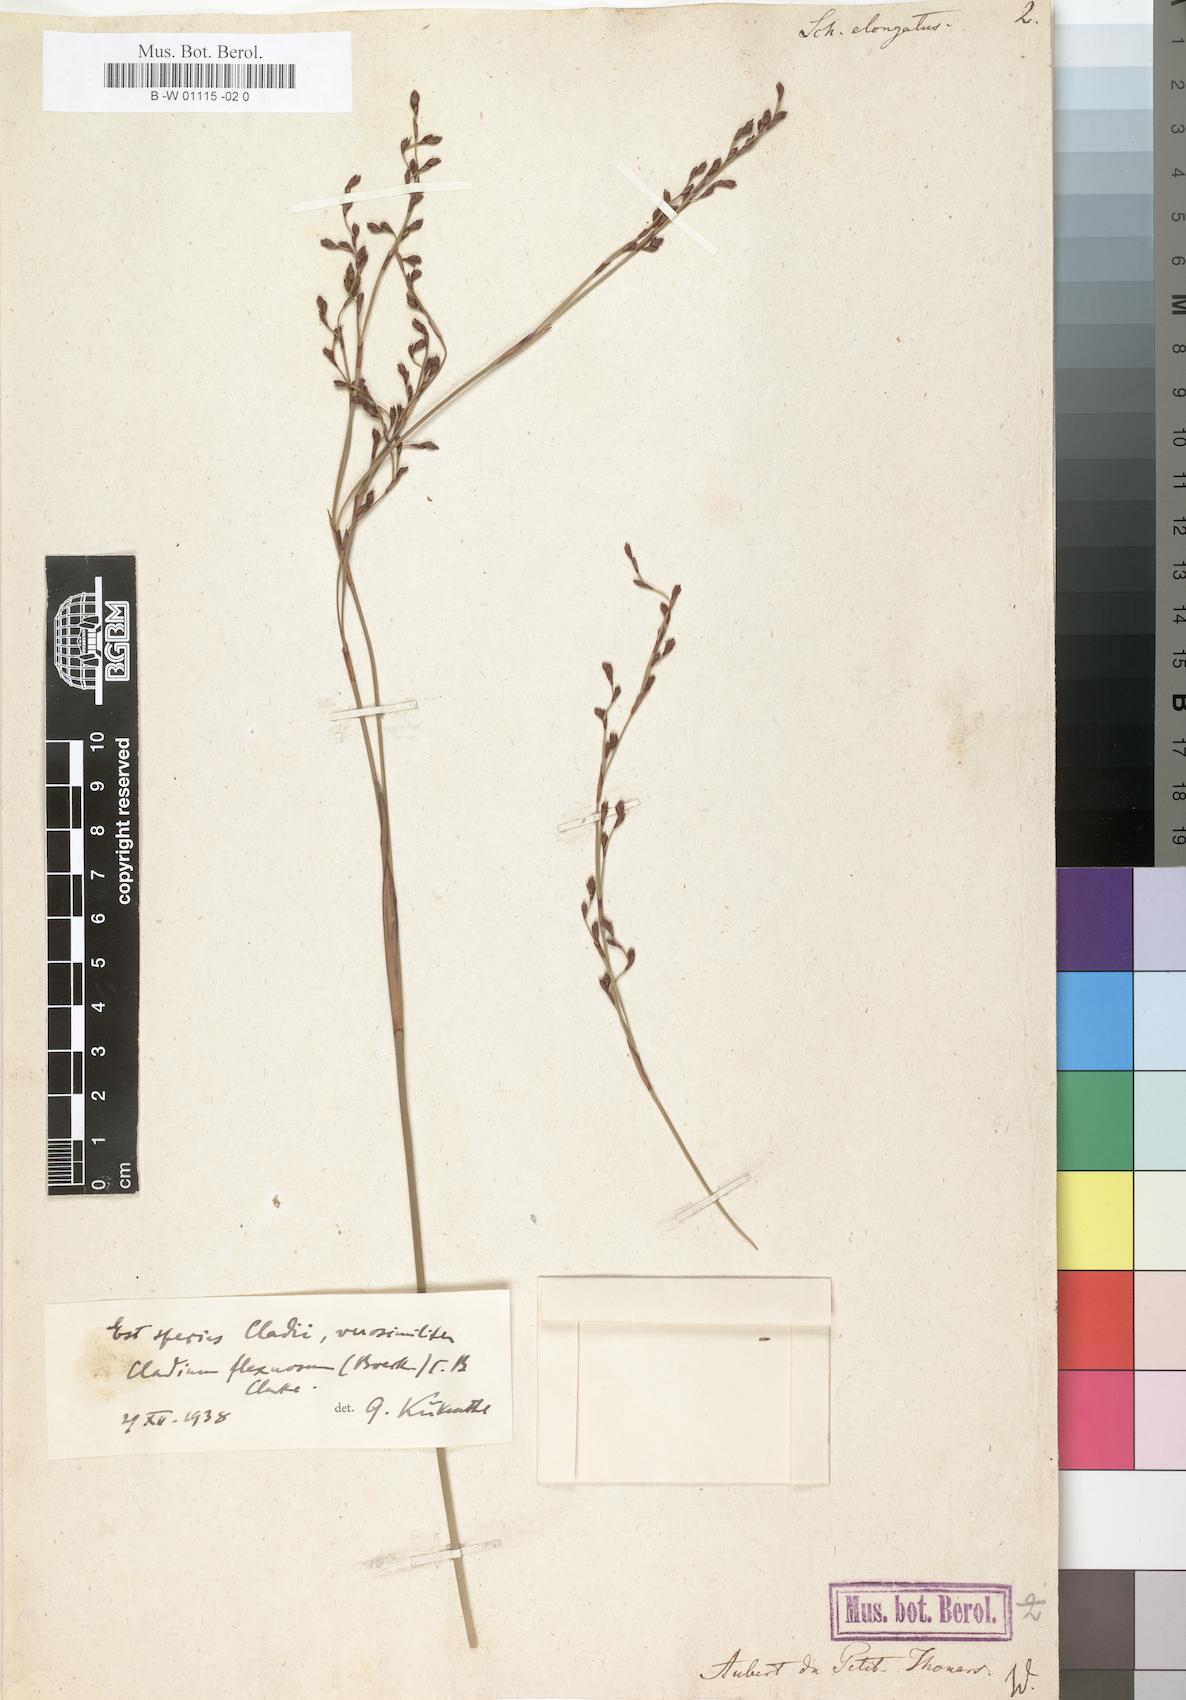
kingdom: Plantae
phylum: Tracheophyta
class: Liliopsida
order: Poales
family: Cyperaceae
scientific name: Cyperaceae
